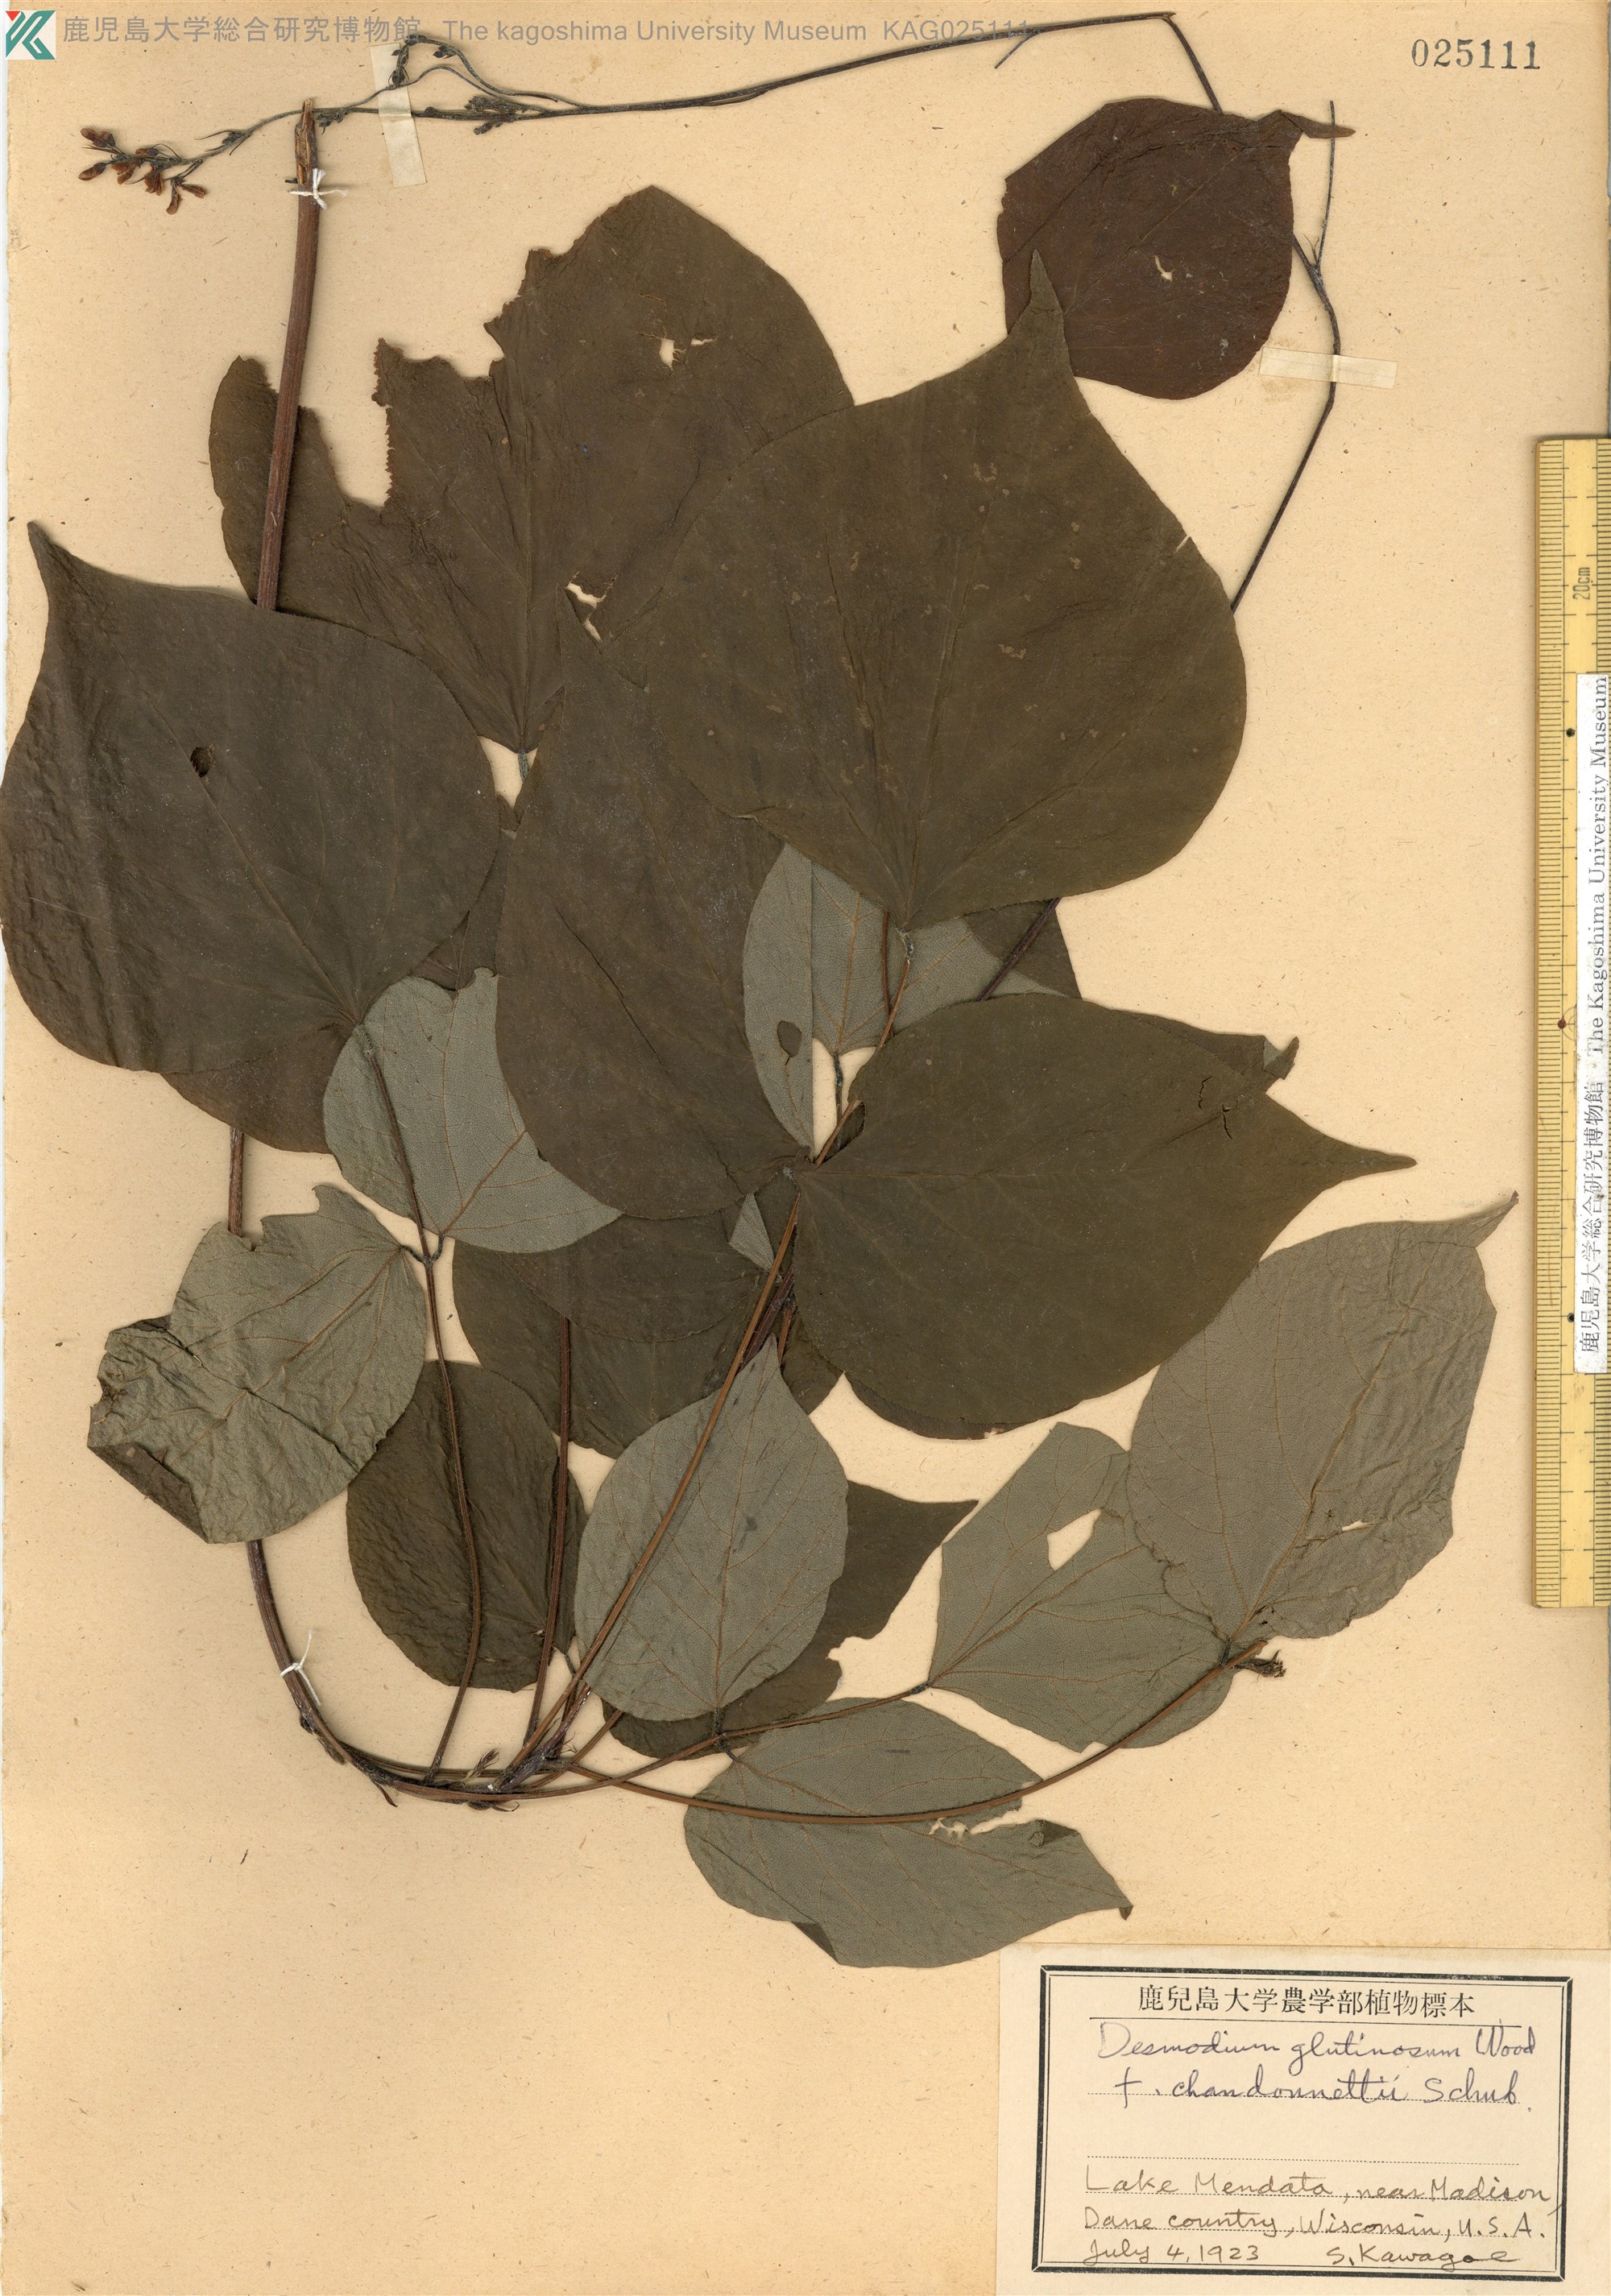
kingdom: Plantae
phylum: Tracheophyta
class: Magnoliopsida
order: Fabales
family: Fabaceae
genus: Hylodesmum
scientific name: Hylodesmum glutinosum
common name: Clustered-leaved tick-trefoil
